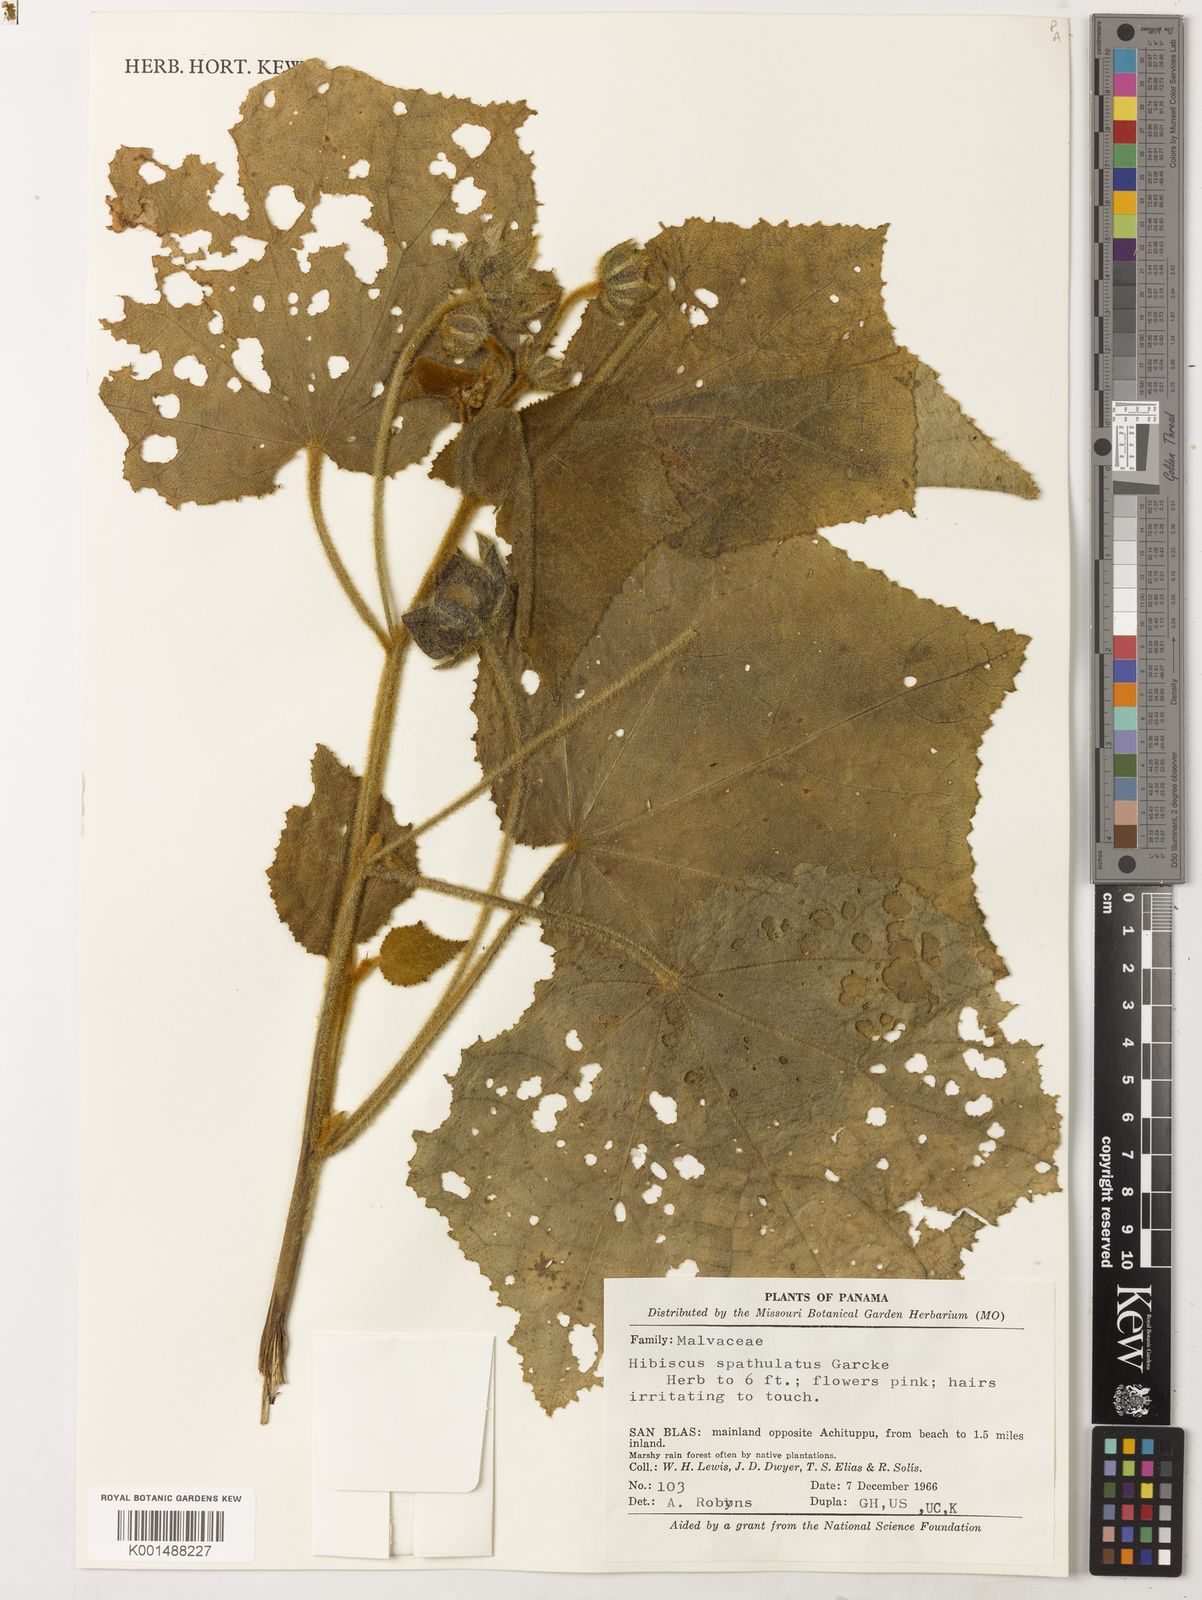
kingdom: Plantae
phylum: Tracheophyta
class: Liliopsida
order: Asparagales
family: Orchidaceae
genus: Oberonia
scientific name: Oberonia betongensis
